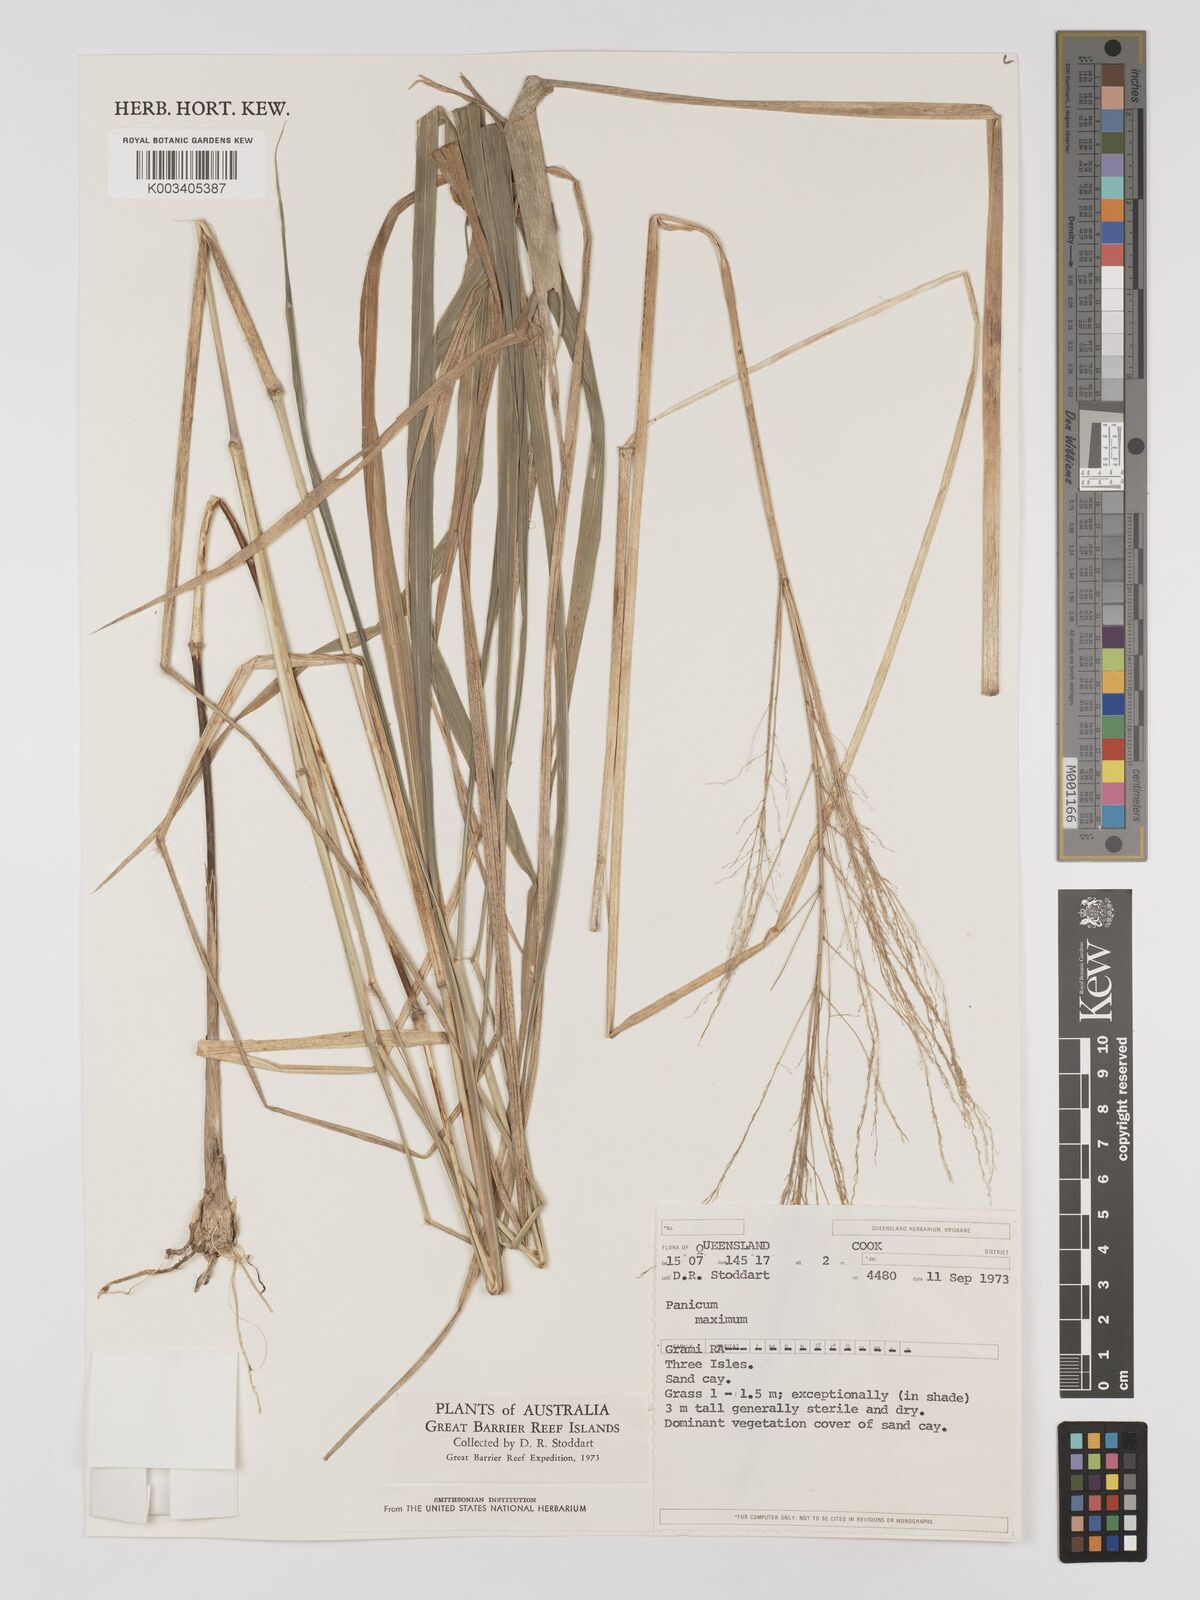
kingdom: Plantae
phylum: Tracheophyta
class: Liliopsida
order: Poales
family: Poaceae
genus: Megathyrsus
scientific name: Megathyrsus maximus
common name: Guineagrass
